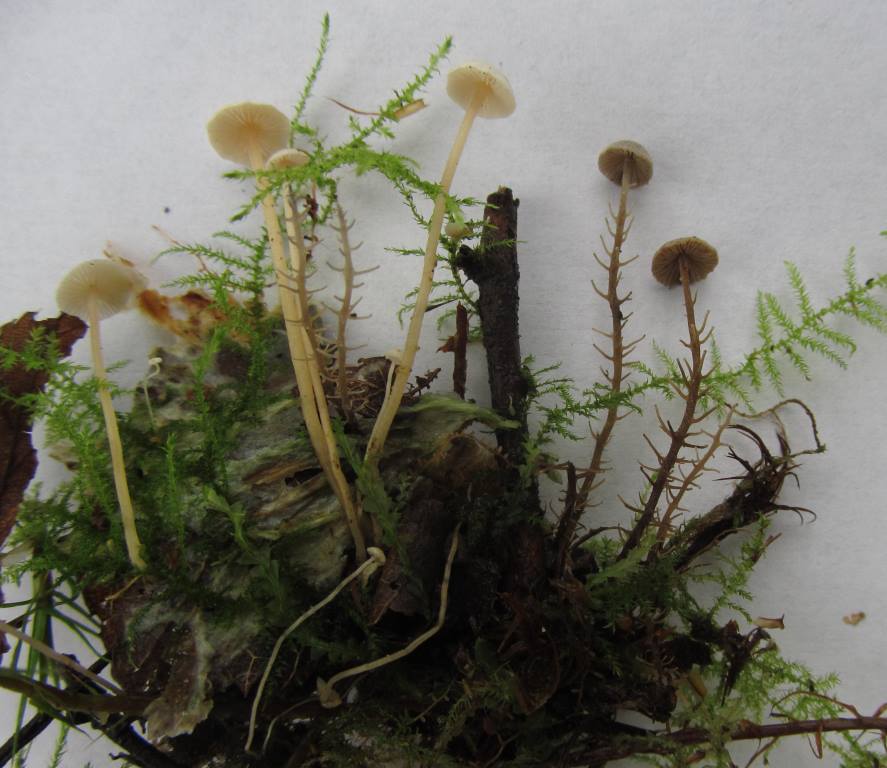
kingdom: Fungi
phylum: Basidiomycota
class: Agaricomycetes
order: Agaricales
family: Tricholomataceae
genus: Dendrocollybia
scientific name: Dendrocollybia racemosa
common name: grenet lighat
